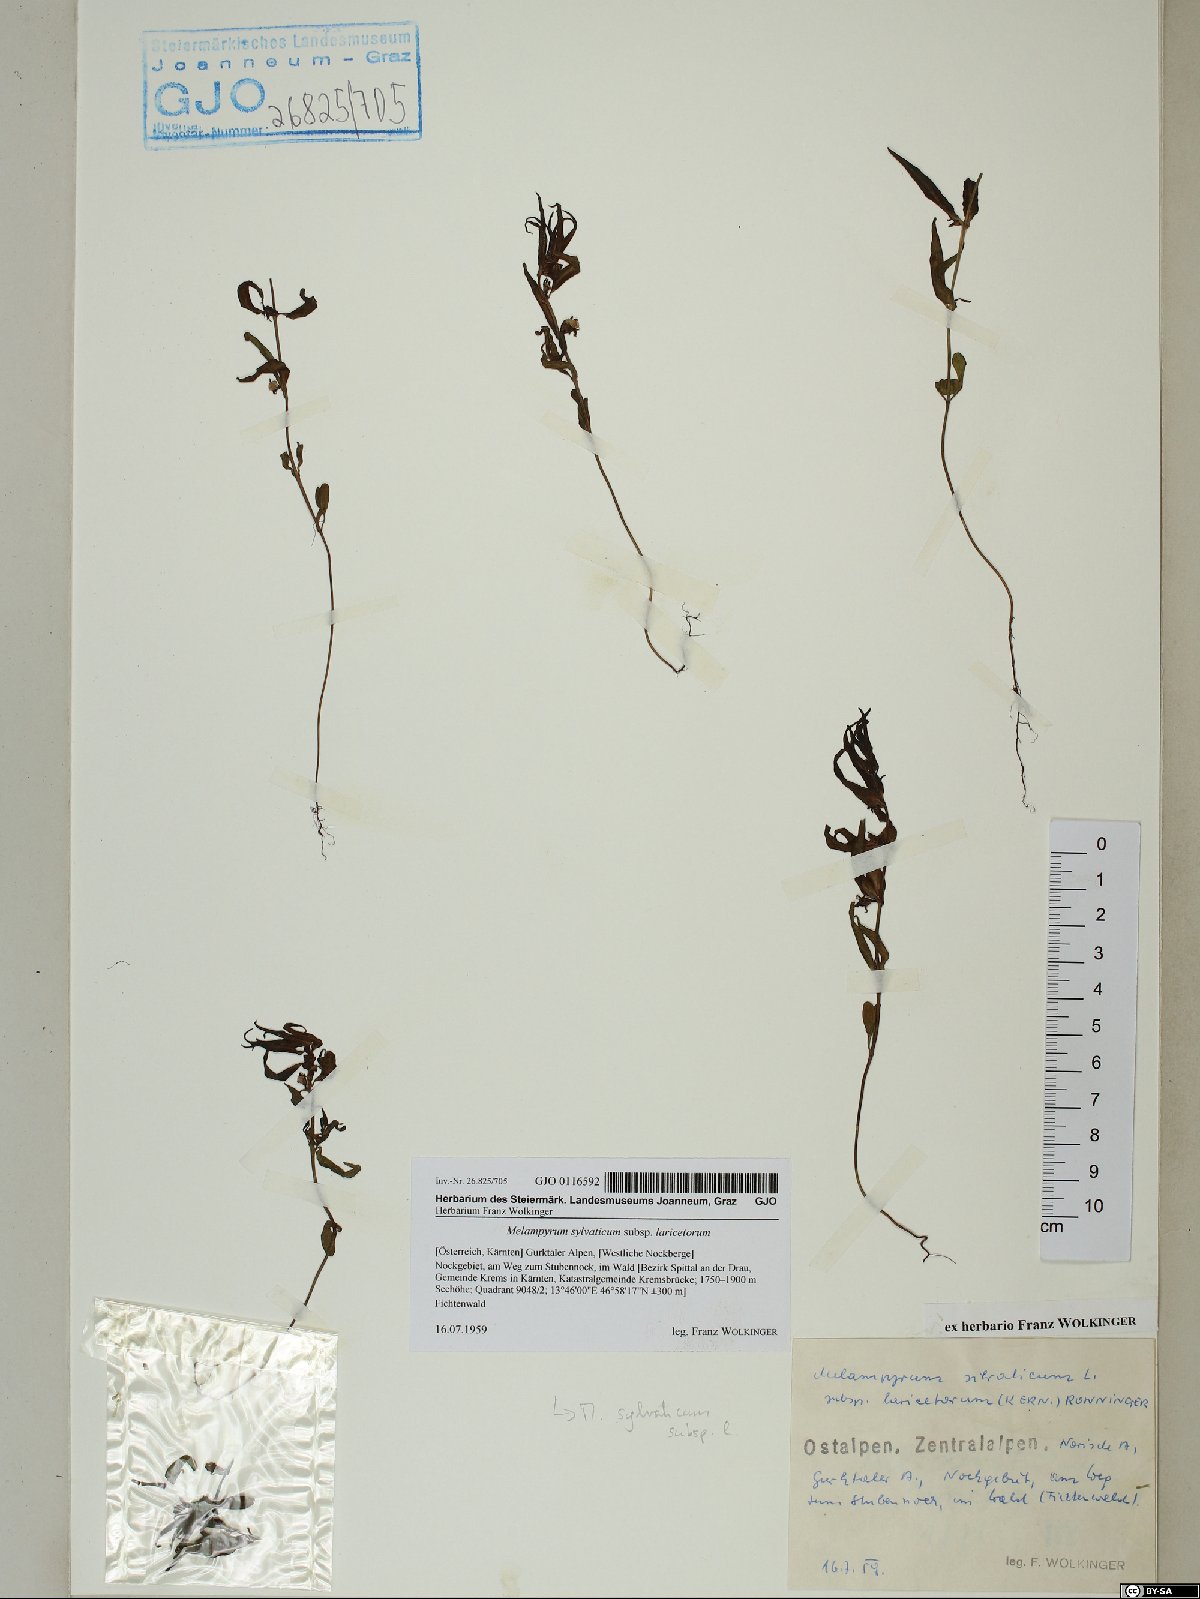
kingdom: Plantae
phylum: Tracheophyta
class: Magnoliopsida
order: Lamiales
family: Orobanchaceae
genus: Melampyrum
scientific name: Melampyrum sylvaticum
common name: Small cow-wheat
